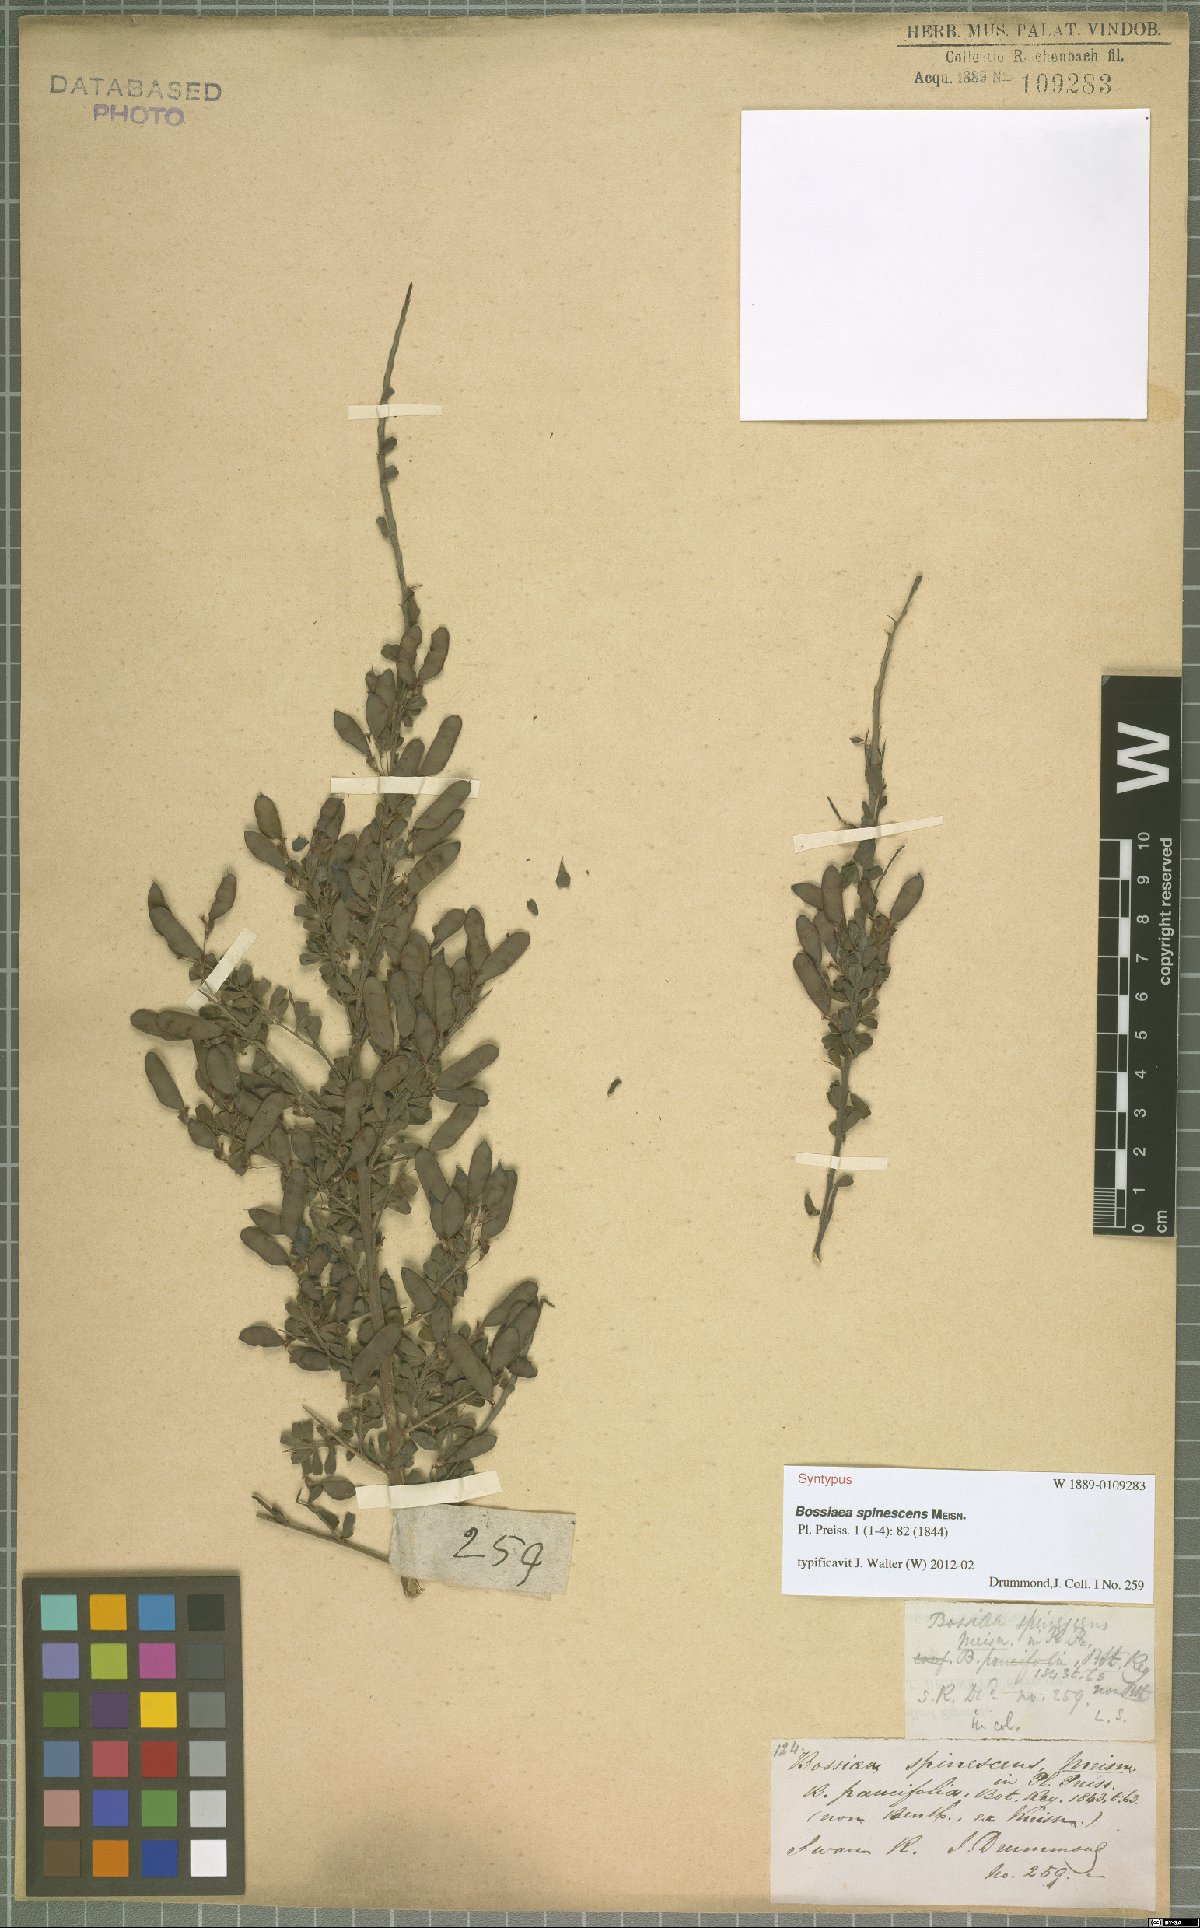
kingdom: Plantae
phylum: Tracheophyta
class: Magnoliopsida
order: Fabales
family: Fabaceae
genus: Bossiaea
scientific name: Bossiaea spinescens
